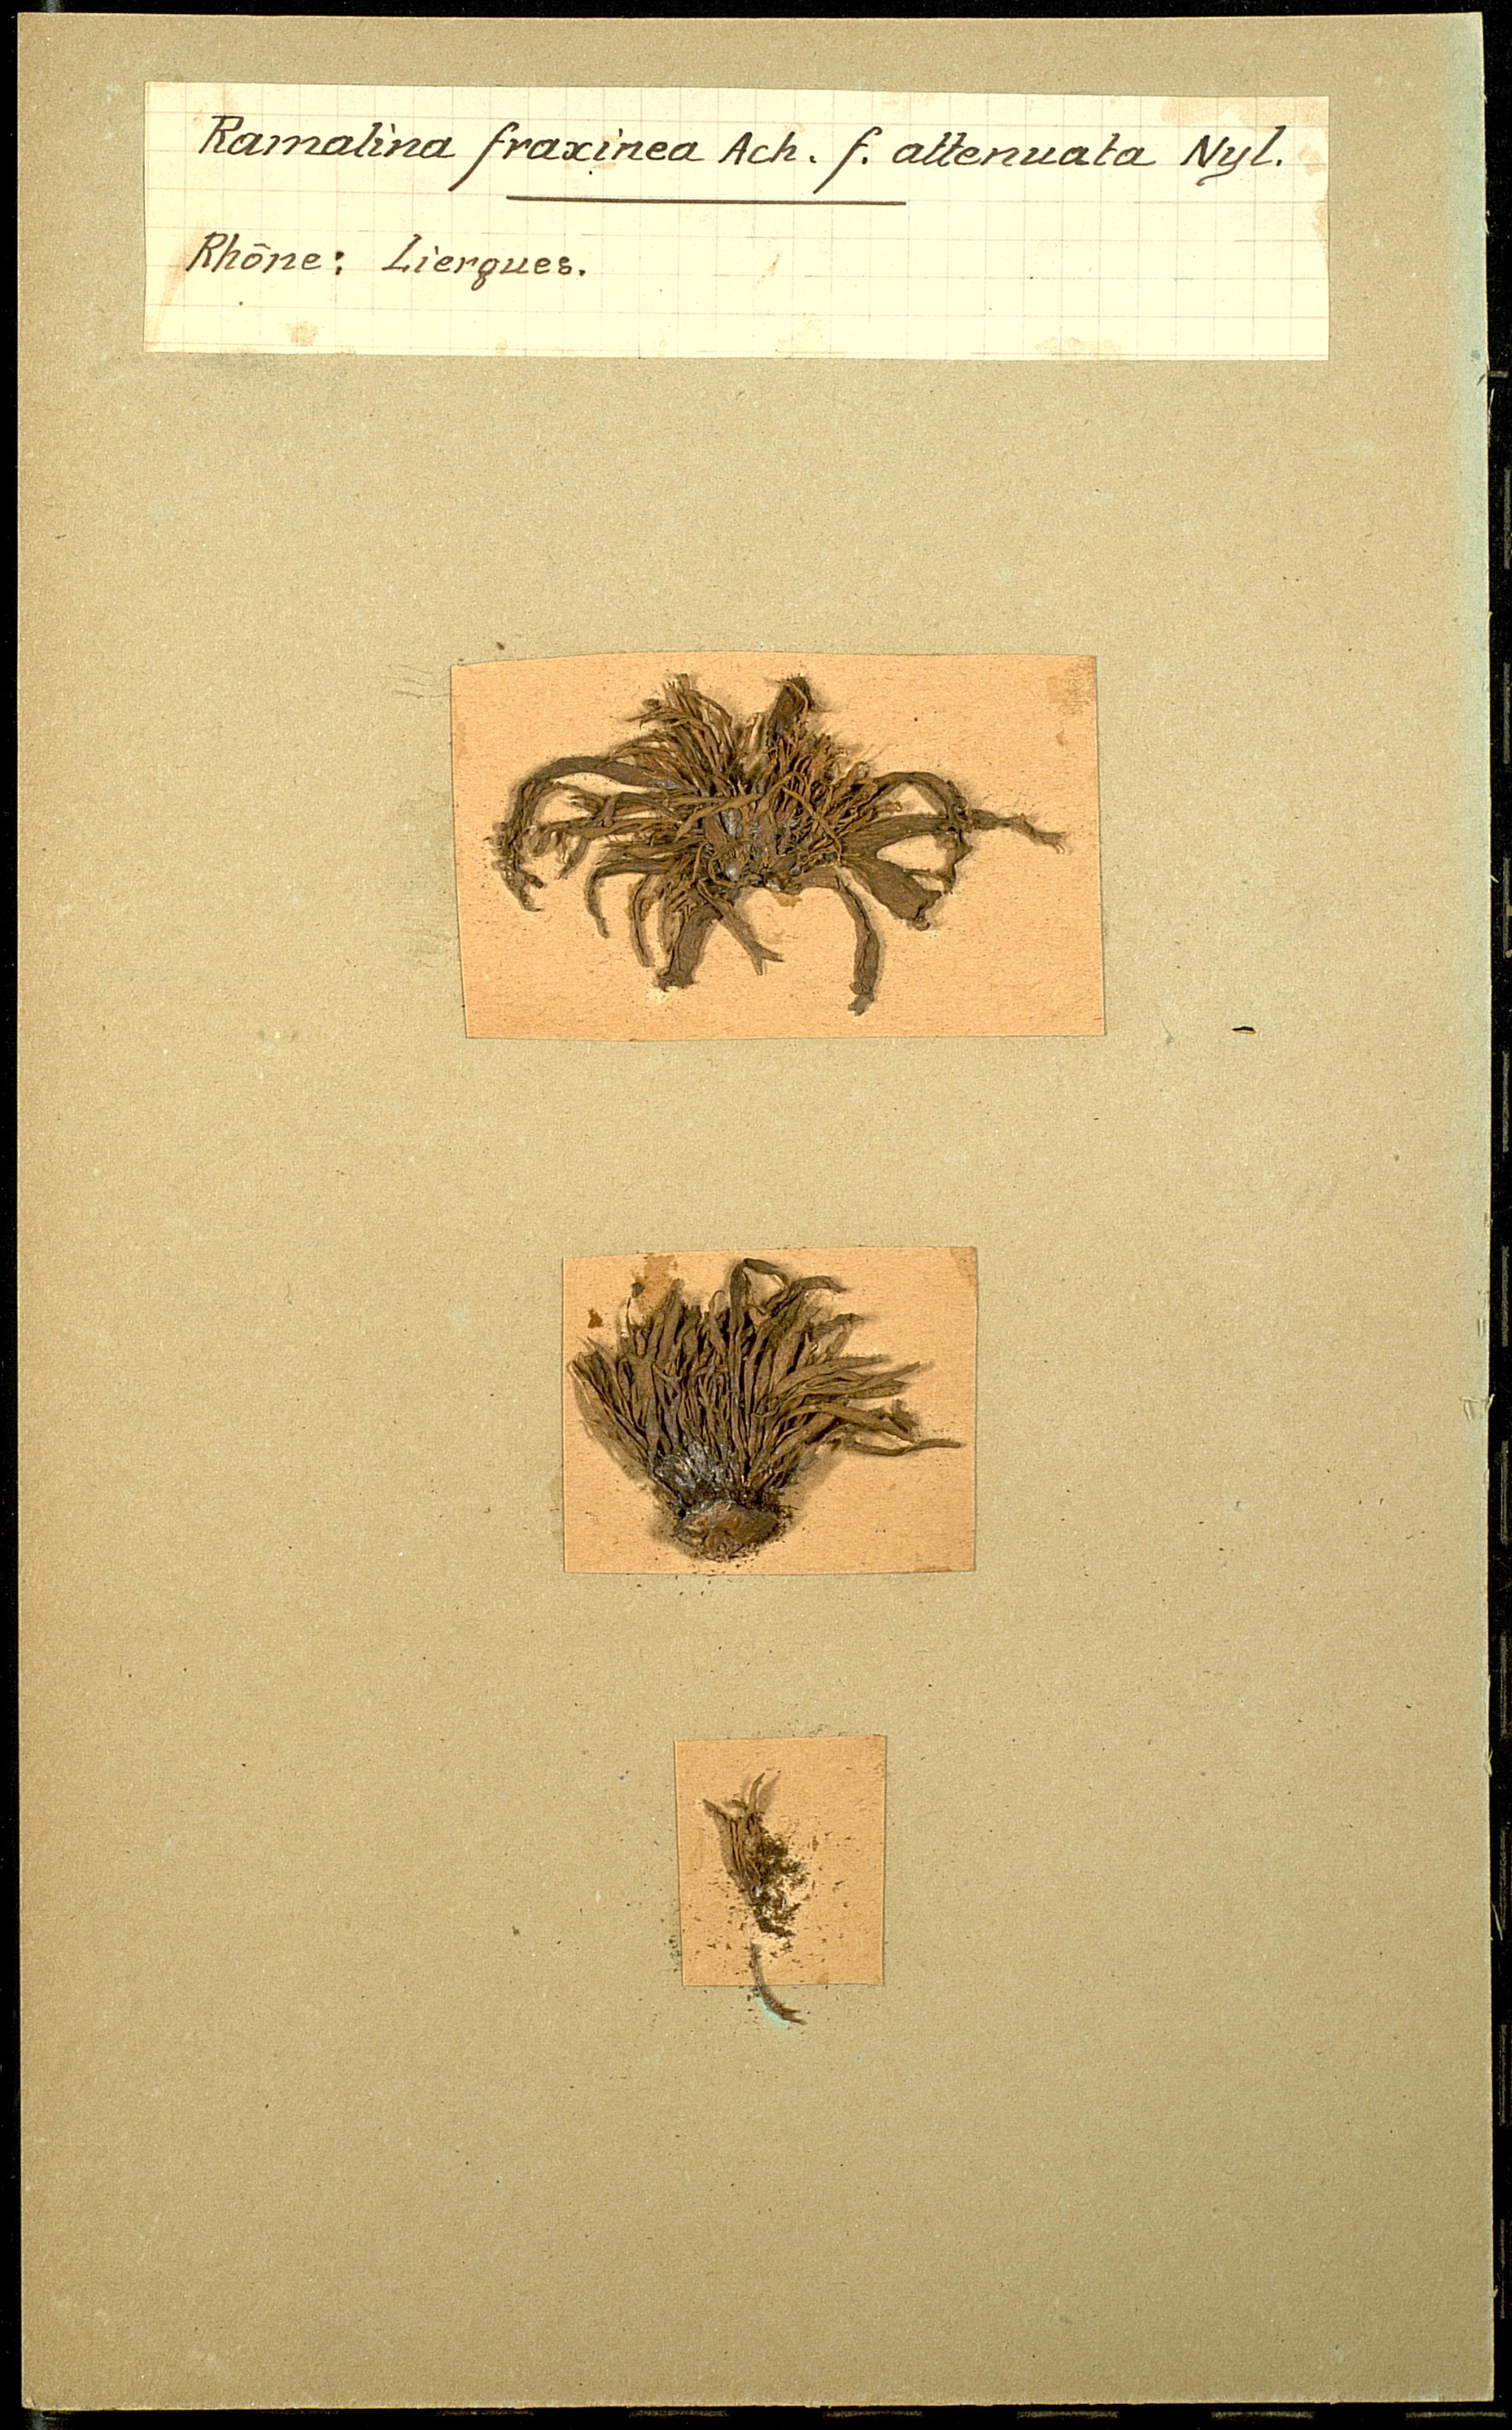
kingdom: Fungi
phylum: Ascomycota
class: Lecanoromycetes
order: Lecanorales
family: Ramalinaceae
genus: Ramalina
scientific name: Ramalina fraxinea
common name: Cartilage lichen
